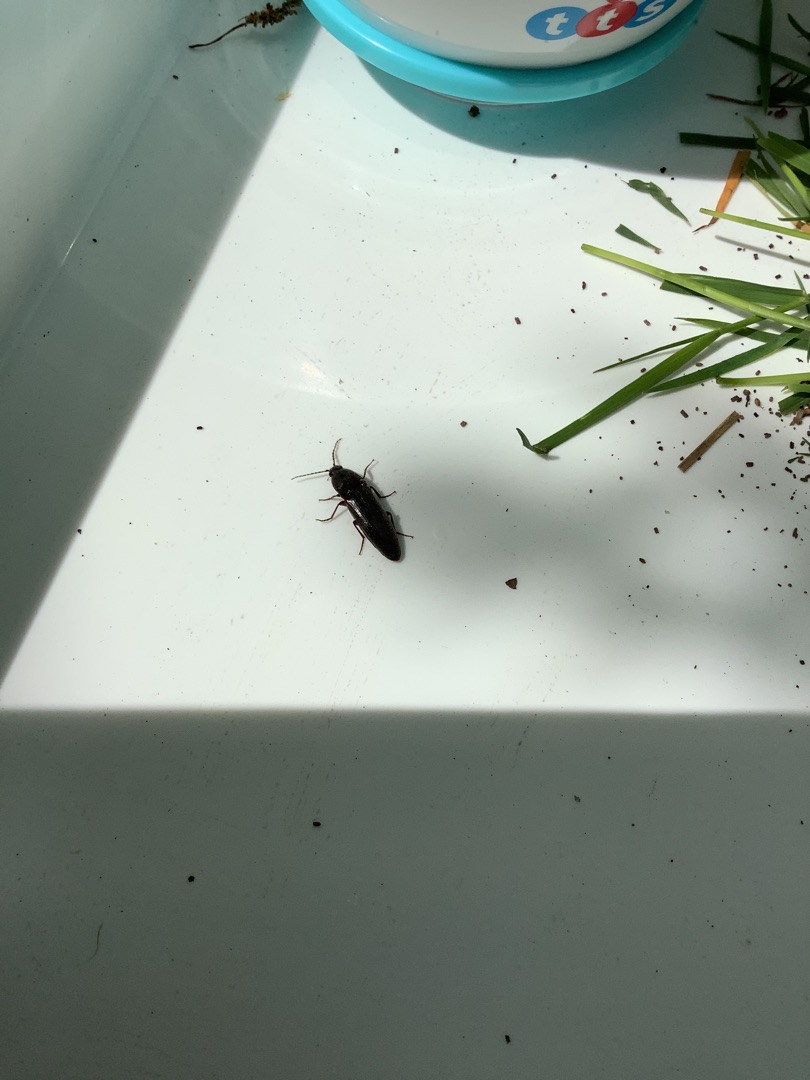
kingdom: Animalia
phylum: Arthropoda
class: Insecta
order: Coleoptera
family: Elateridae
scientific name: Elateridae
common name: Smældere
